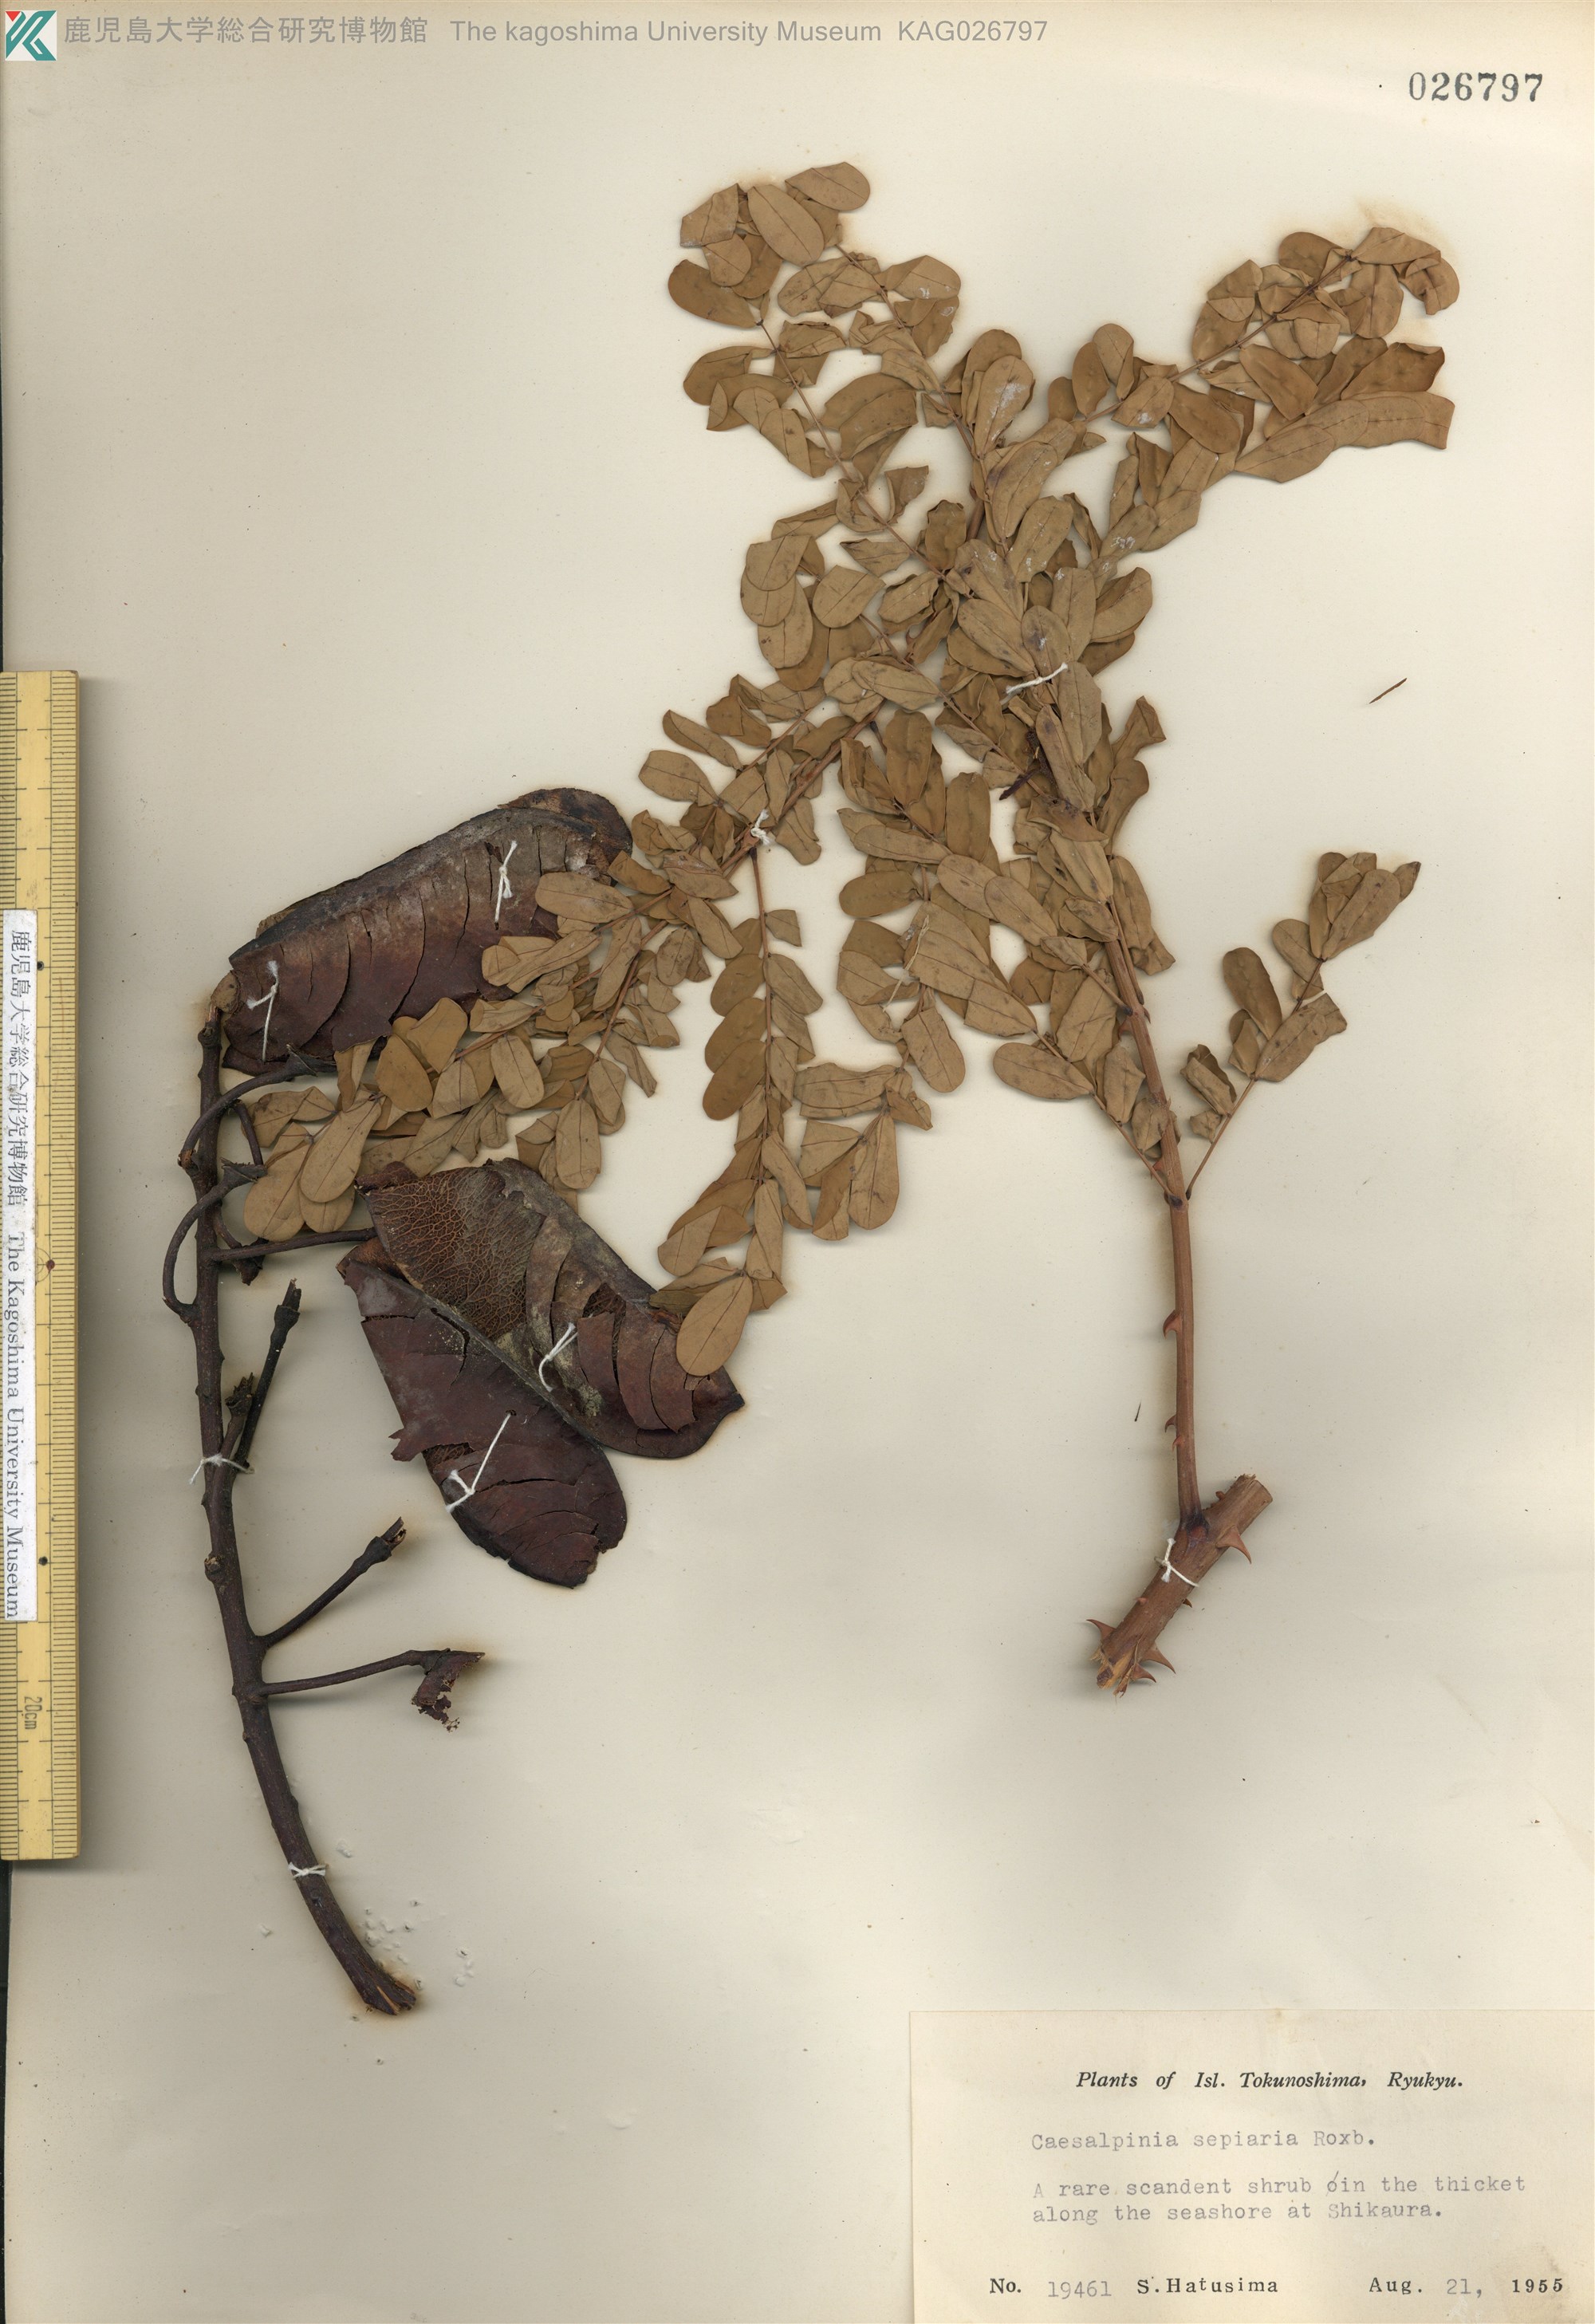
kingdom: Plantae
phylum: Tracheophyta
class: Magnoliopsida
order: Fabales
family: Fabaceae
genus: Biancaea
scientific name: Biancaea decapetala
